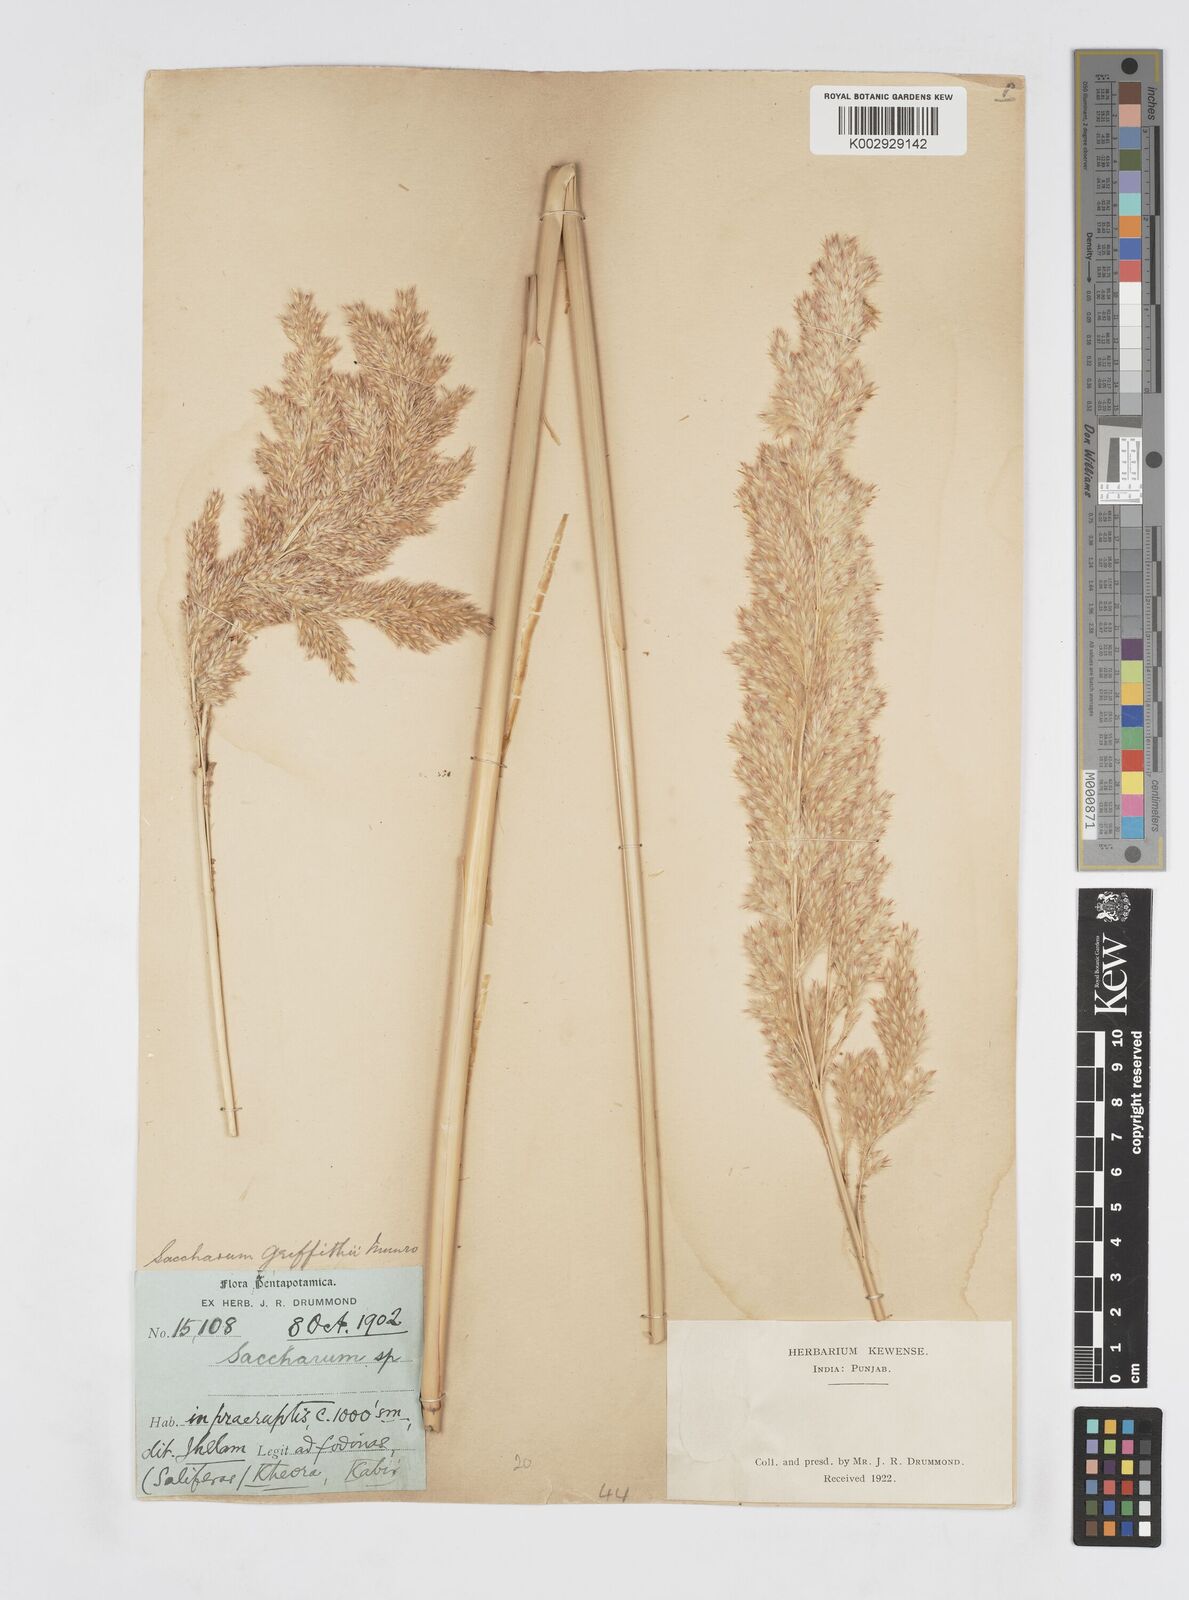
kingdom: Plantae
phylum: Tracheophyta
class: Liliopsida
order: Poales
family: Poaceae
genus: Saccharum
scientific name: Saccharum griffithii
